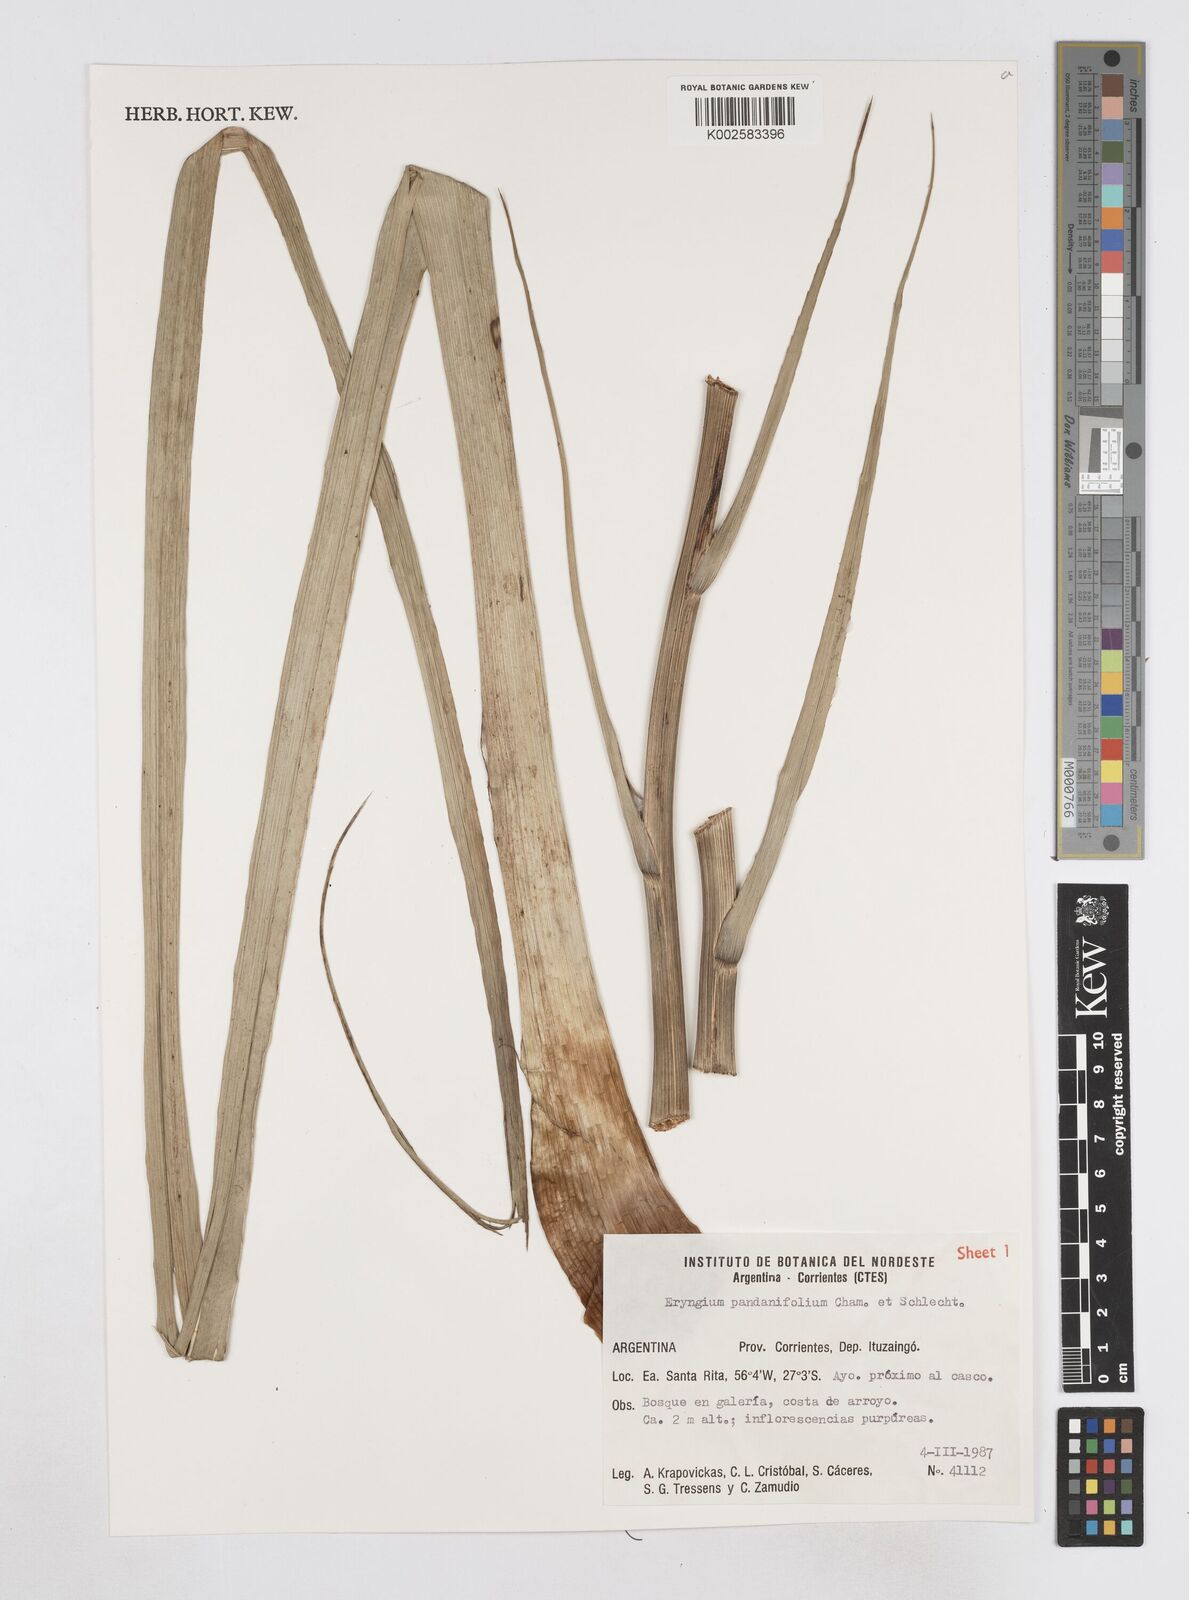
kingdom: Plantae
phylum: Tracheophyta
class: Magnoliopsida
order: Apiales
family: Apiaceae
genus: Eryngium
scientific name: Eryngium pandanifolium
